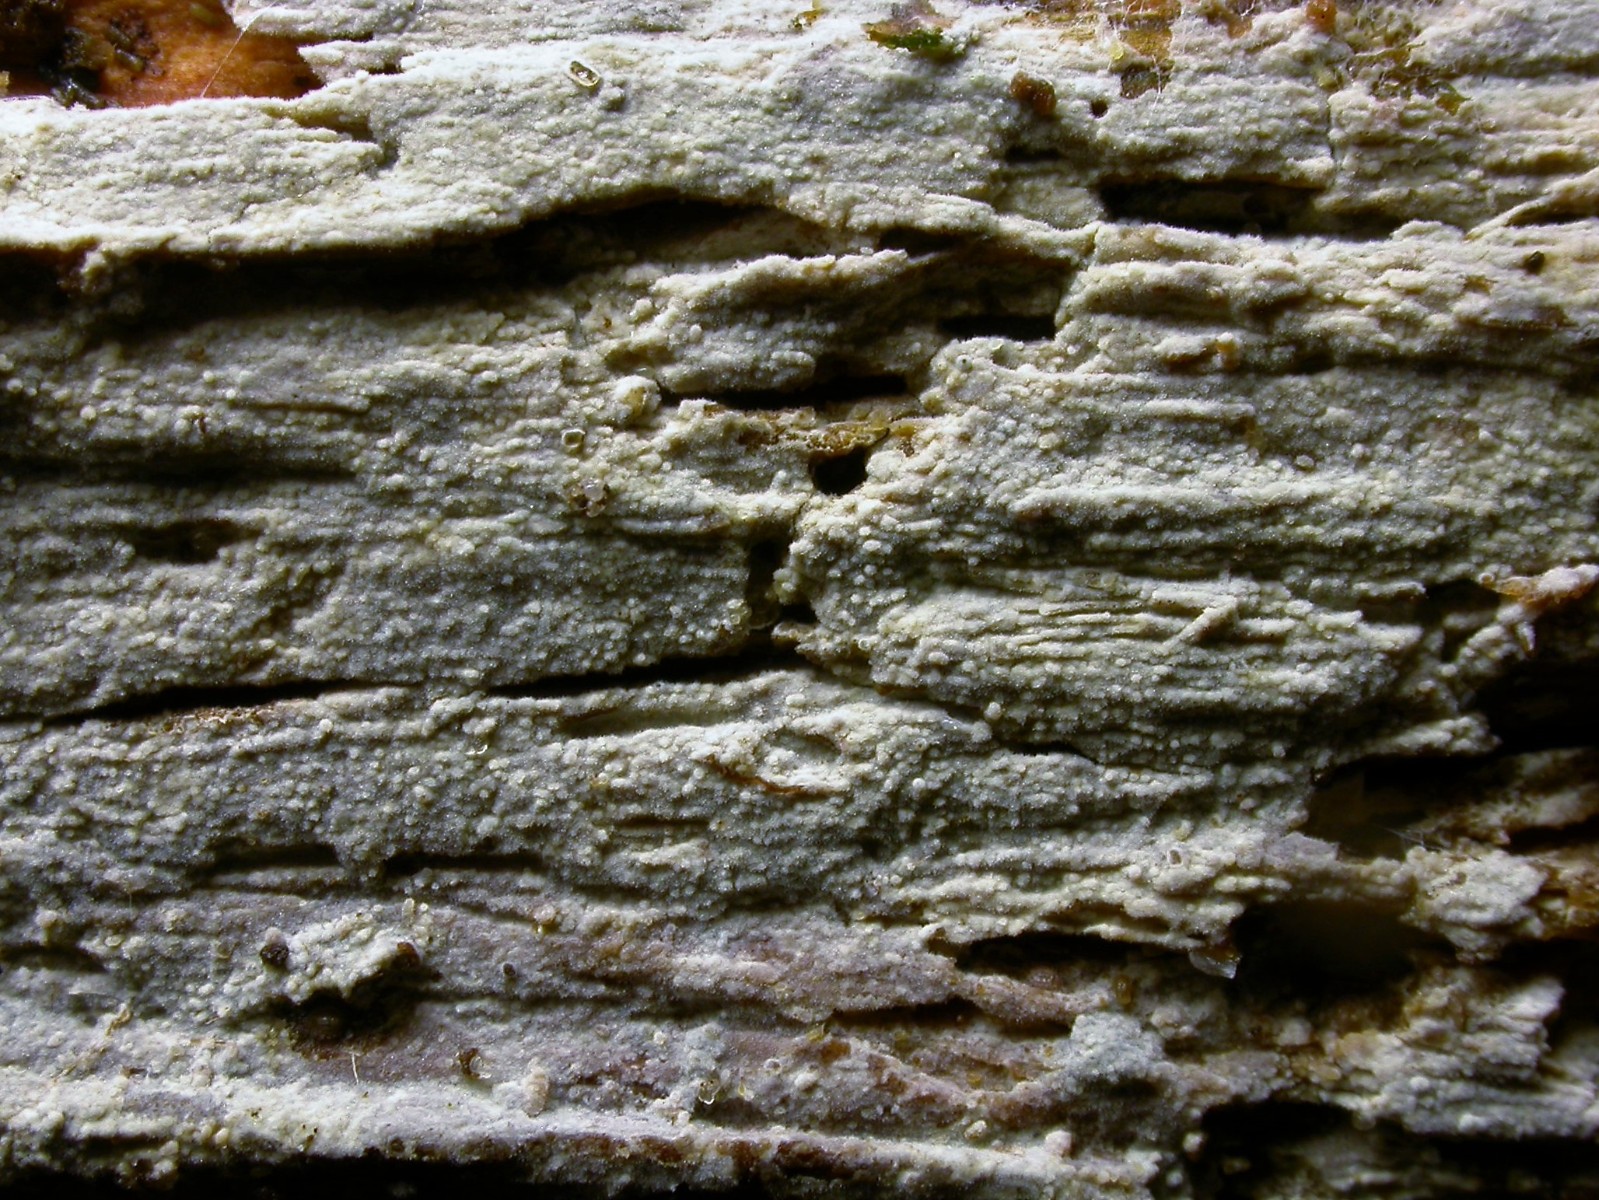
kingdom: Fungi
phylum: Basidiomycota
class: Agaricomycetes
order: Hymenochaetales
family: Hyphodontiaceae
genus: Hyphodontia
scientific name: Hyphodontia arguta
